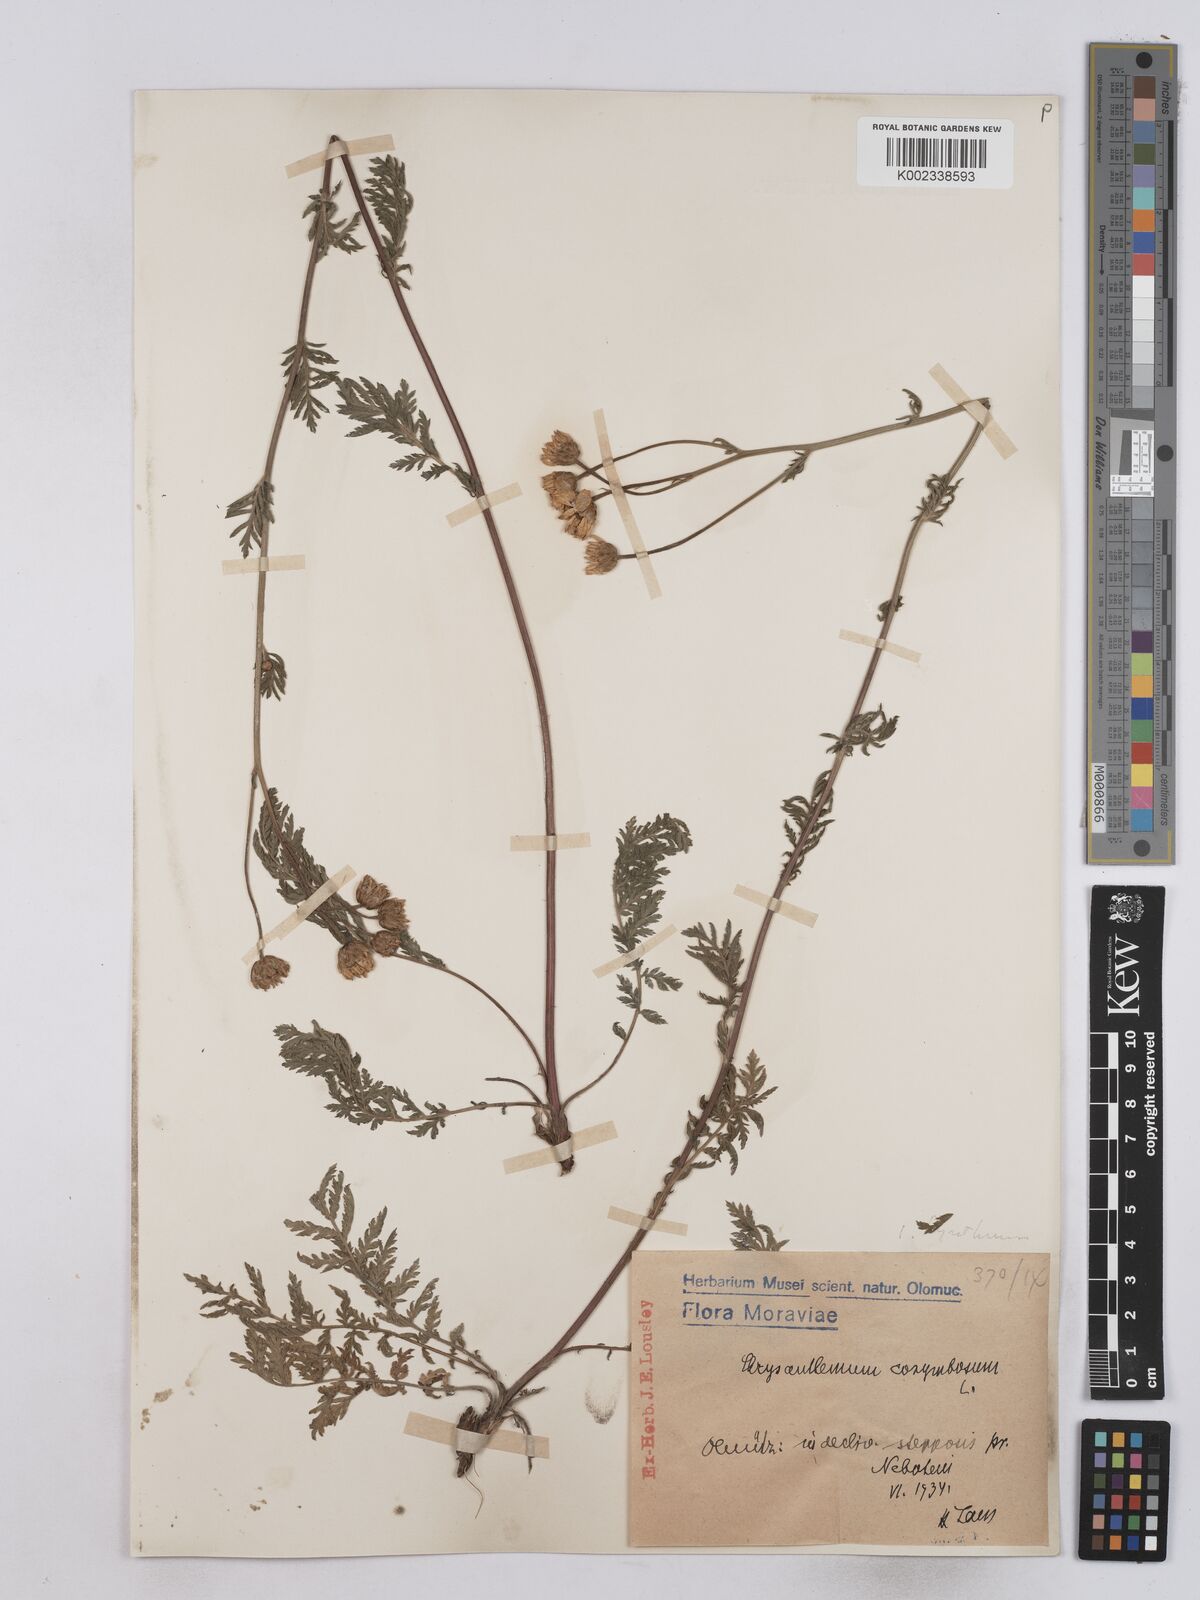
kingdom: Plantae
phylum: Tracheophyta
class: Magnoliopsida
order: Asterales
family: Asteraceae
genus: Tanacetum
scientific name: Tanacetum corymbosum
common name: Scentless feverfew
